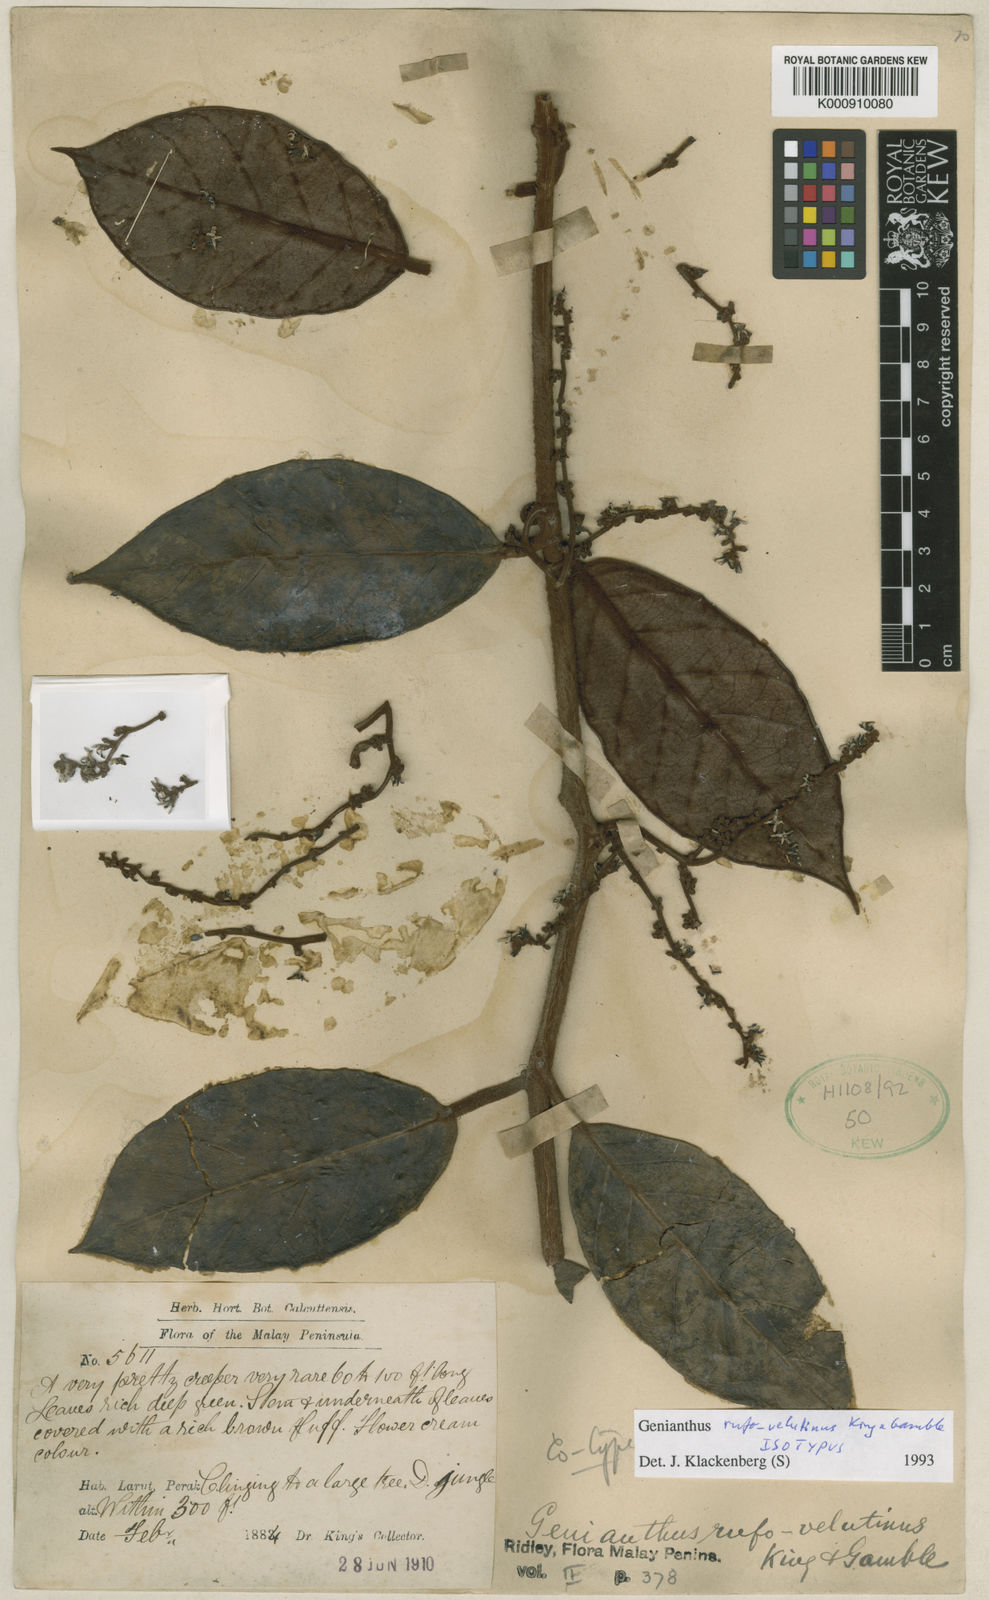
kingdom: Plantae
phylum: Tracheophyta
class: Magnoliopsida
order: Gentianales
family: Apocynaceae
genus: Secamone
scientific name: Secamone
